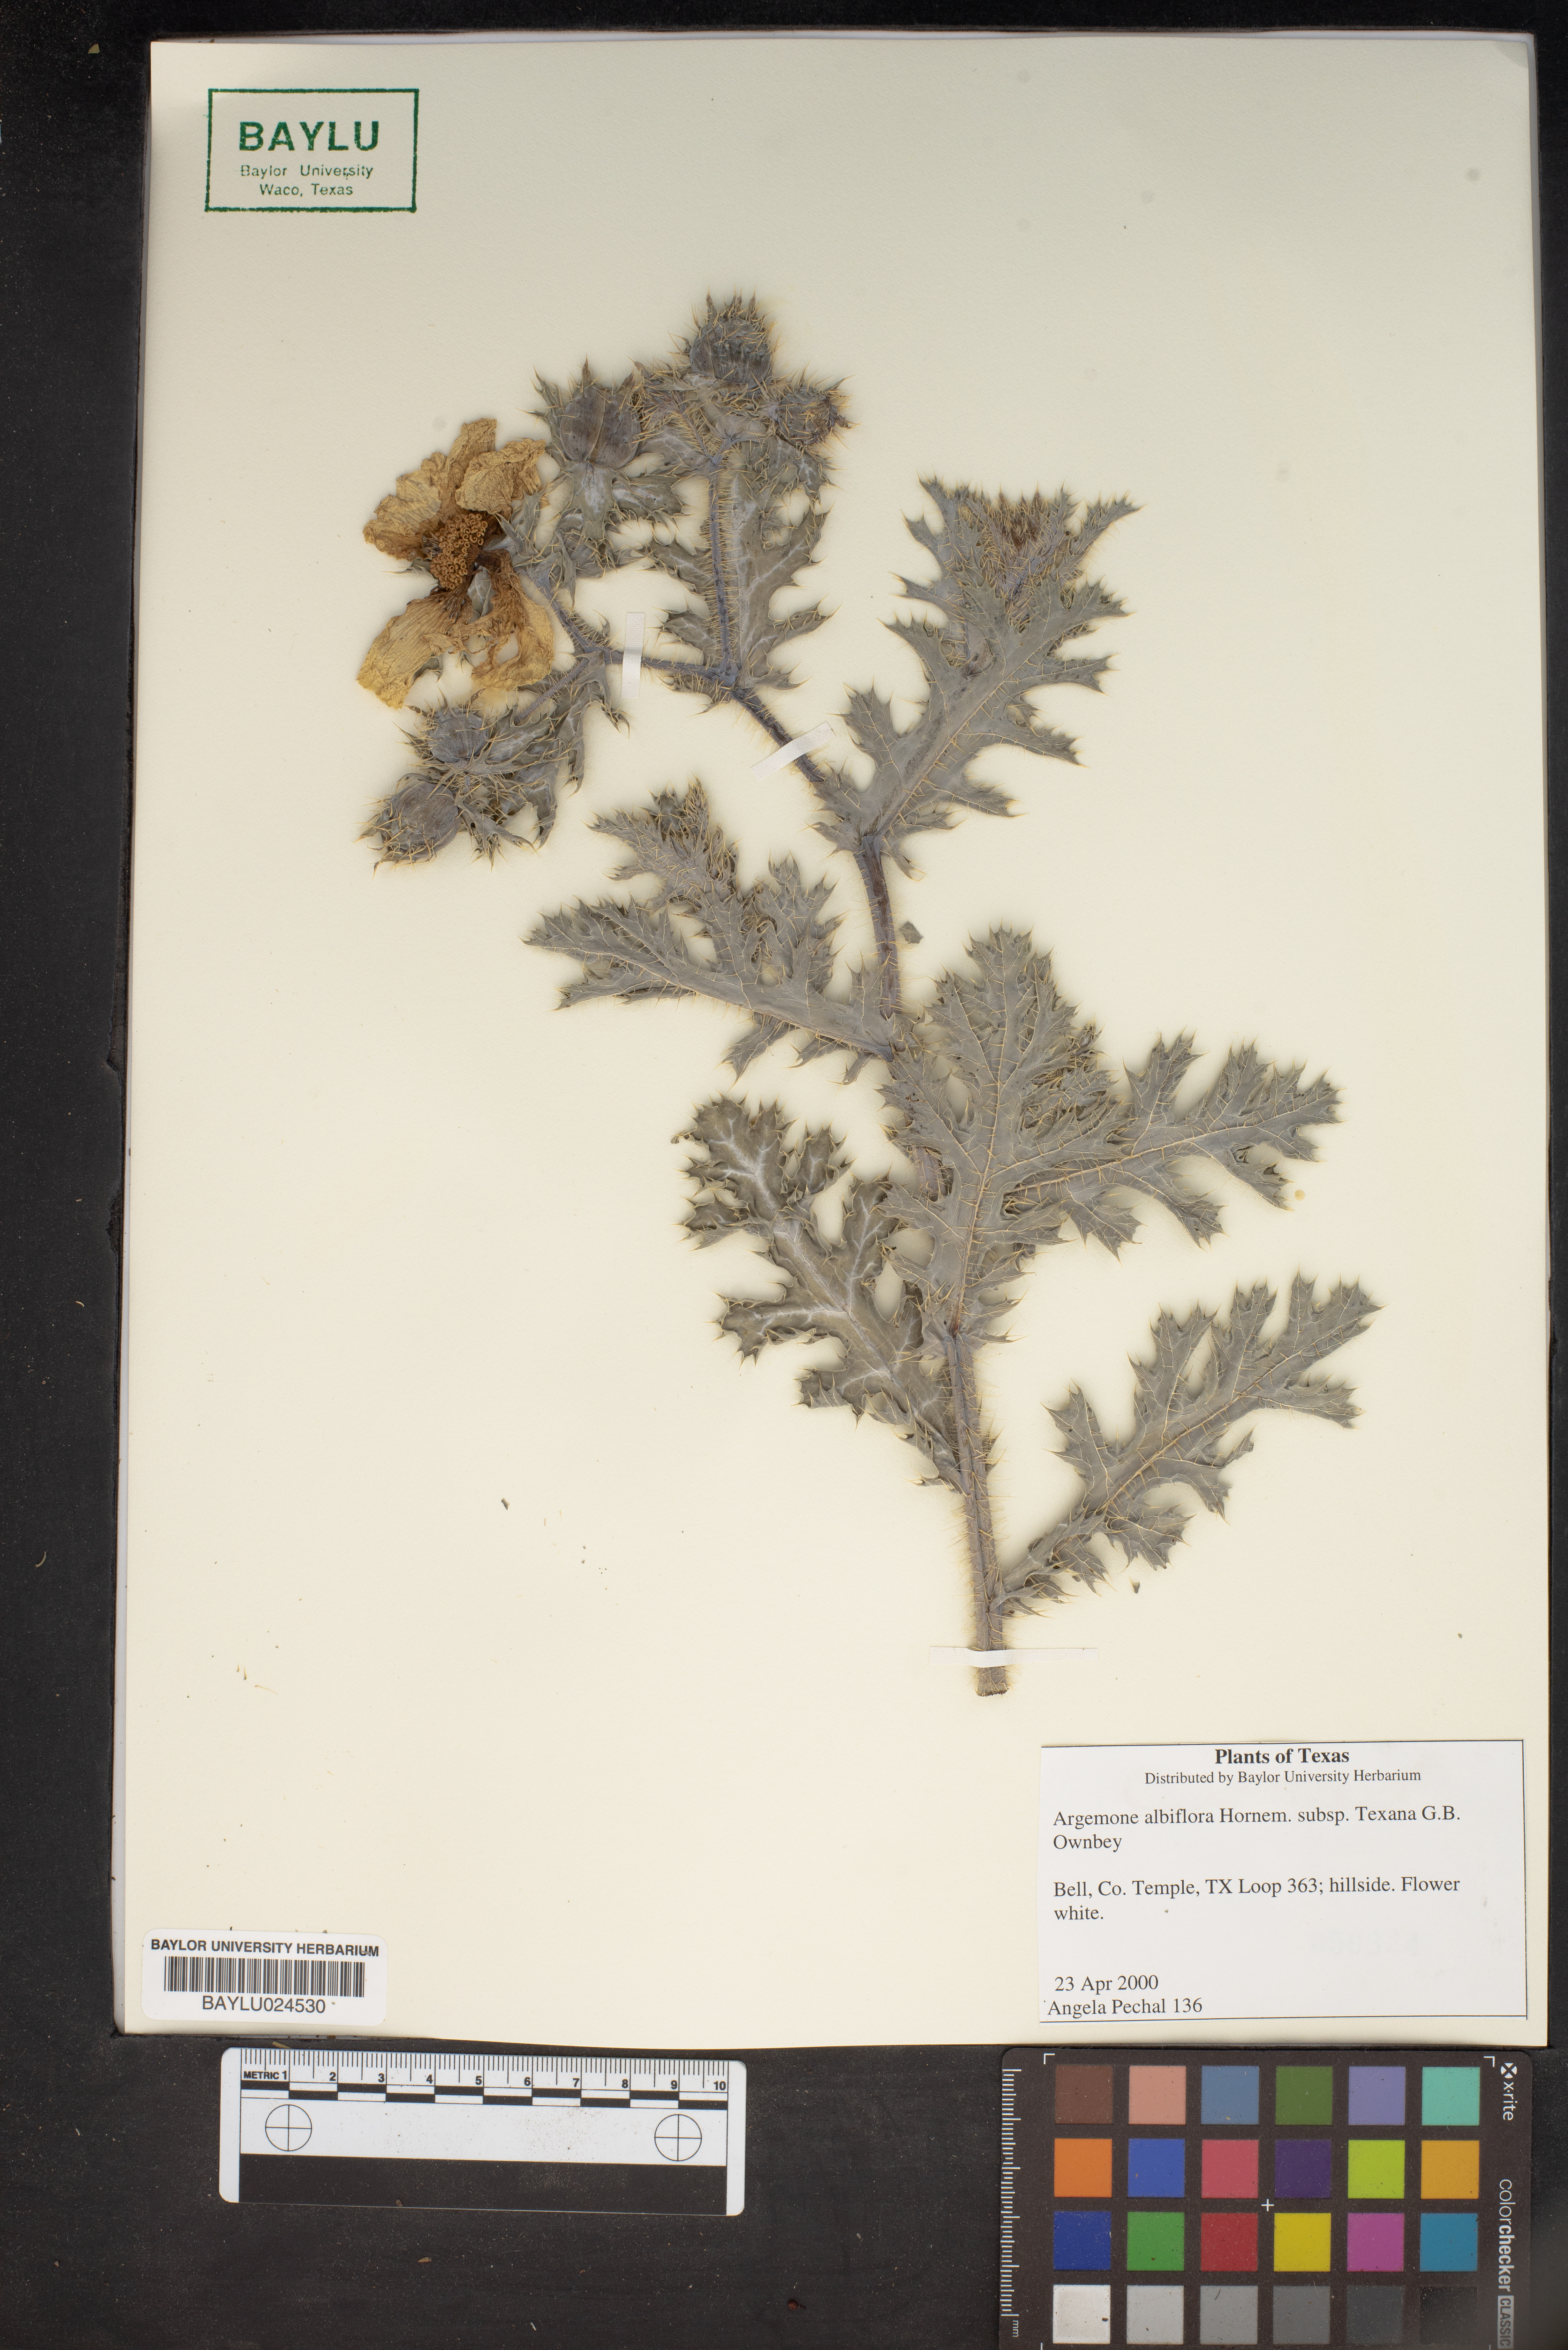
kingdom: Plantae
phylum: Tracheophyta
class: Magnoliopsida
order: Ranunculales
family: Papaveraceae
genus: Argemone
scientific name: Argemone albiflora
